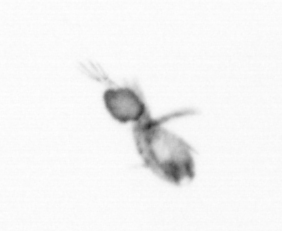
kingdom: Animalia
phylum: Arthropoda
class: Copepoda
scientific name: Copepoda
